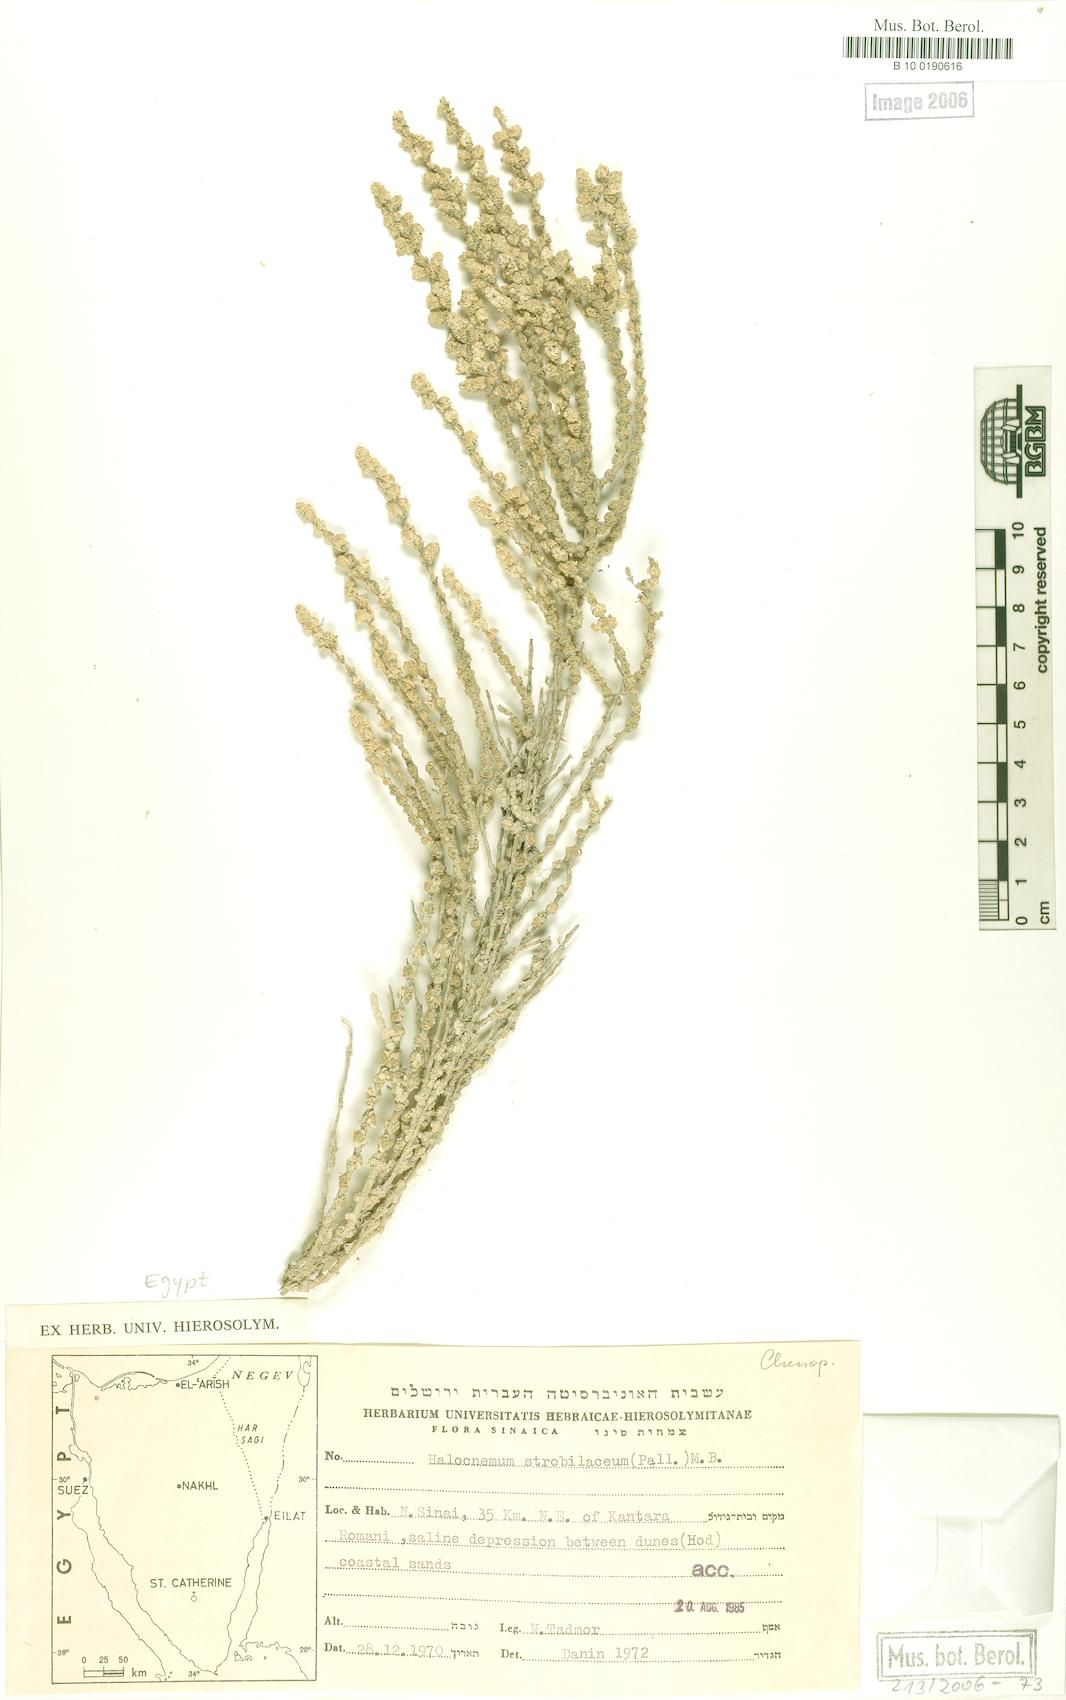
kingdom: Plantae
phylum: Tracheophyta
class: Magnoliopsida
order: Caryophyllales
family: Amaranthaceae
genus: Halocnemum
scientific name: Halocnemum strobilaceum
